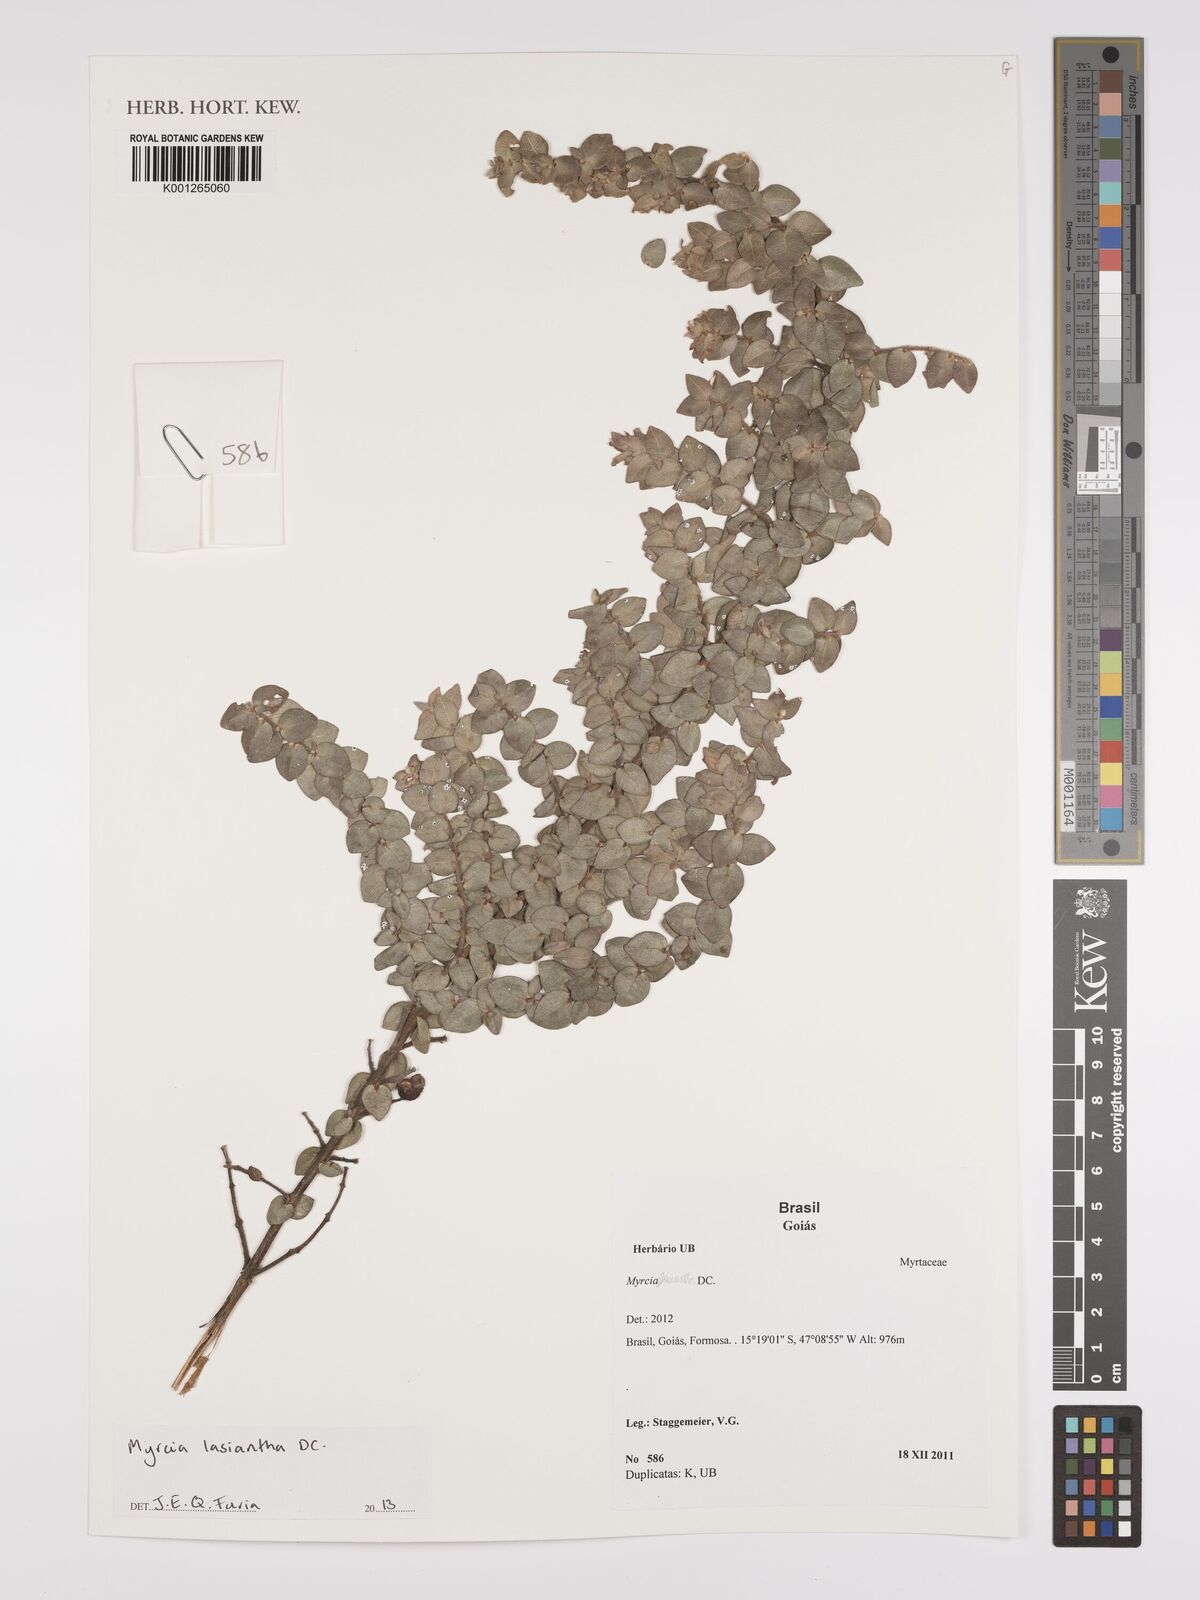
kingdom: Plantae
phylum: Tracheophyta
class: Magnoliopsida
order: Myrtales
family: Myrtaceae
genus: Myrcia
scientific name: Myrcia lasiantha
